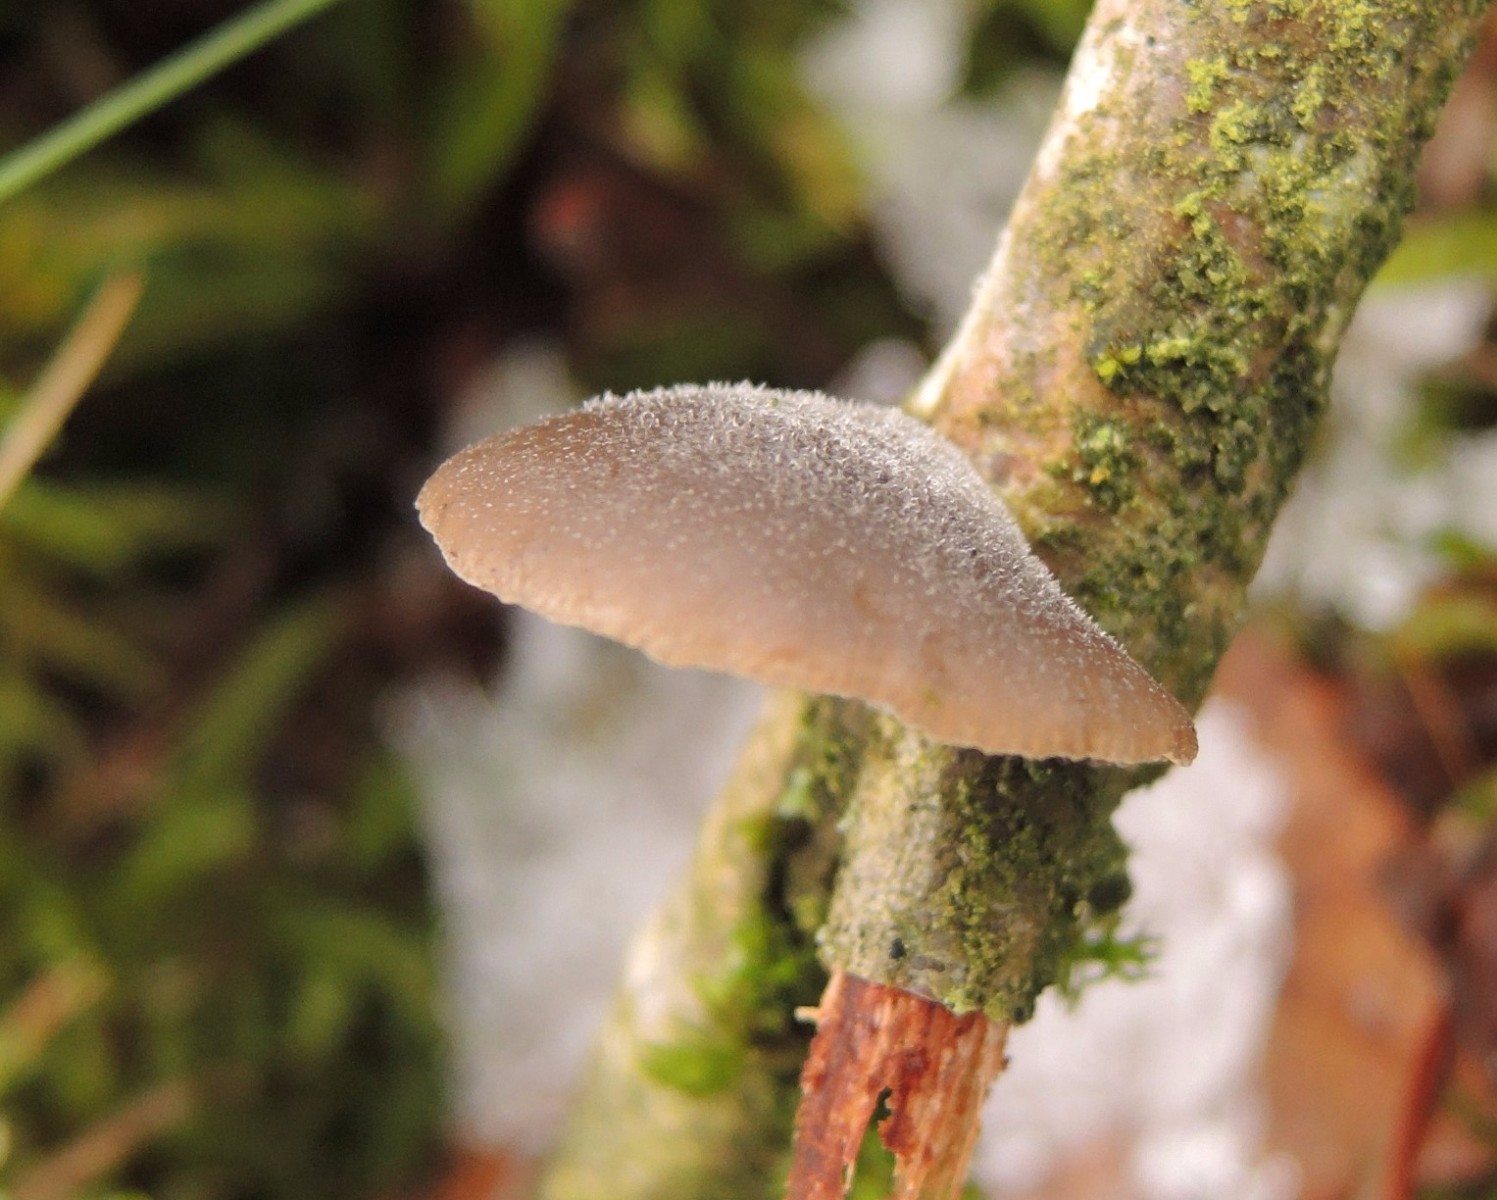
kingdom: Fungi
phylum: Basidiomycota
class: Agaricomycetes
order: Agaricales
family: Pleurotaceae
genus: Hohenbuehelia
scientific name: Hohenbuehelia fluxilis
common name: pile-filthat
